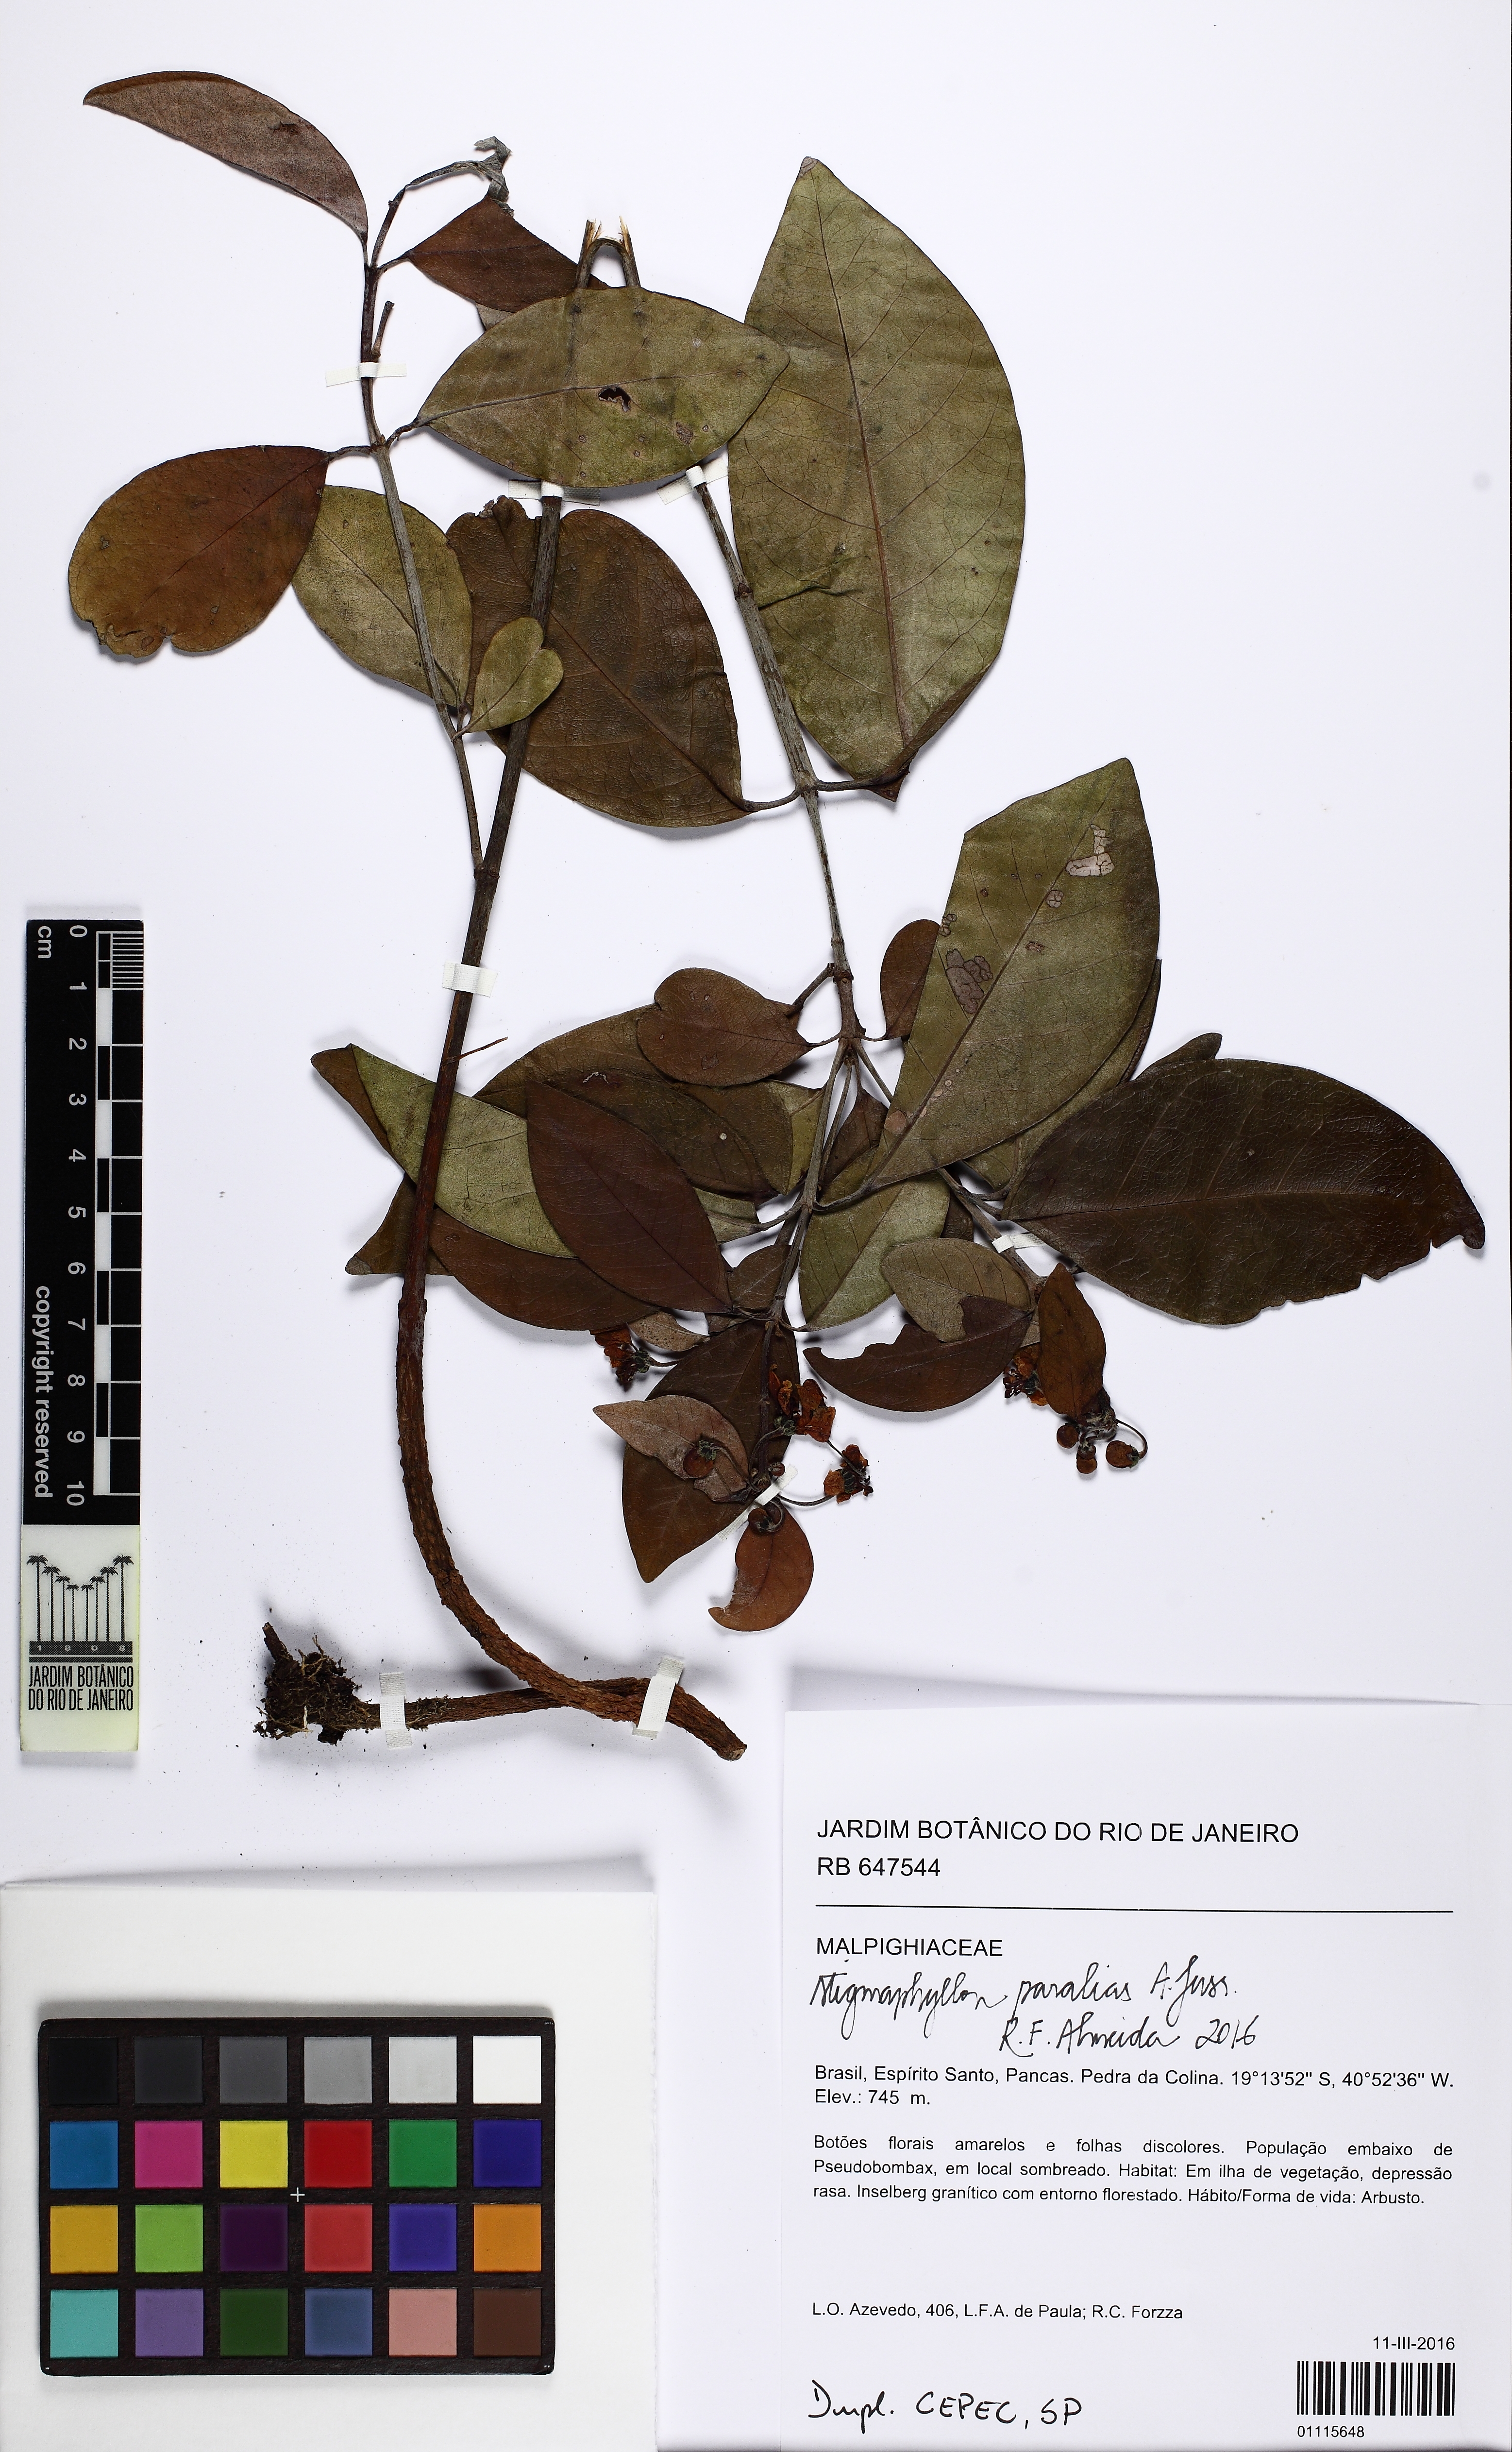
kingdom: Plantae
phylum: Tracheophyta
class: Magnoliopsida
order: Malpighiales
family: Malpighiaceae
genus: Stigmaphyllon
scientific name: Stigmaphyllon paralias
